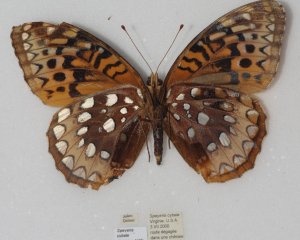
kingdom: Animalia
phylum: Arthropoda
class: Insecta
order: Lepidoptera
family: Nymphalidae
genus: Speyeria
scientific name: Speyeria cybele
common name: Great Spangled Fritillary
